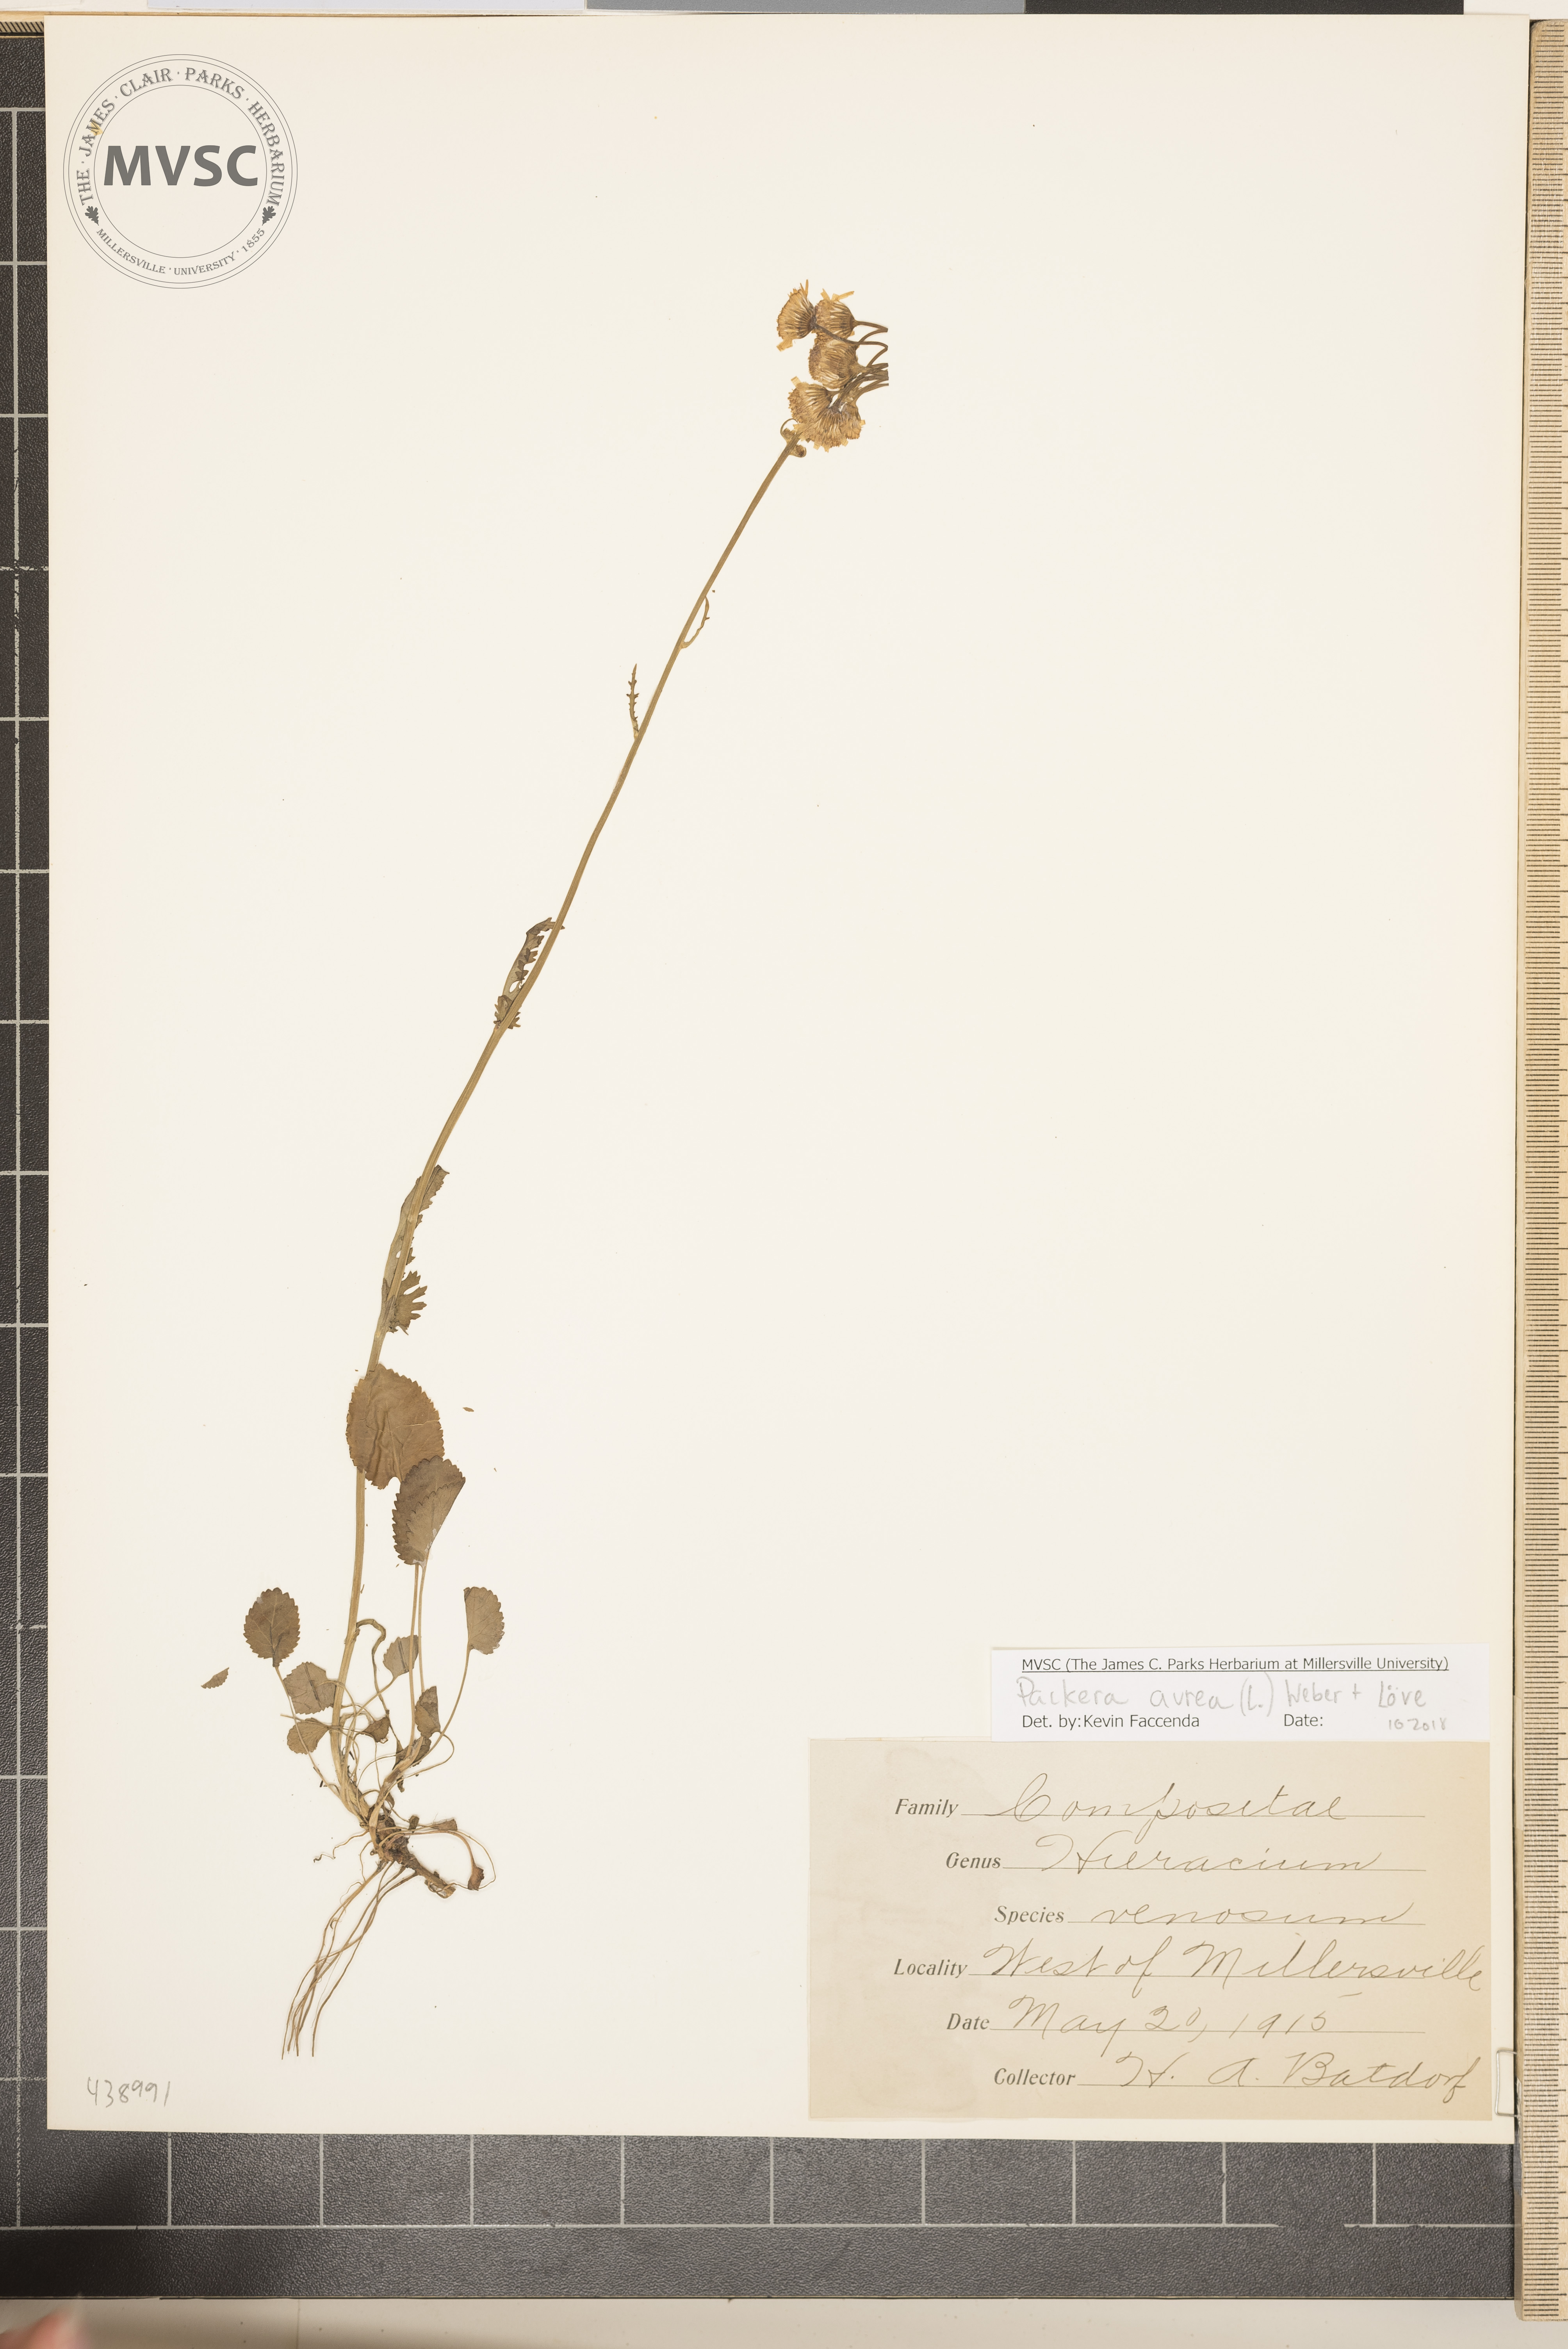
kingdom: Plantae
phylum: Tracheophyta
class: Magnoliopsida
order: Asterales
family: Asteraceae
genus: Packera
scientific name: Packera aurea
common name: Golden groundsel
